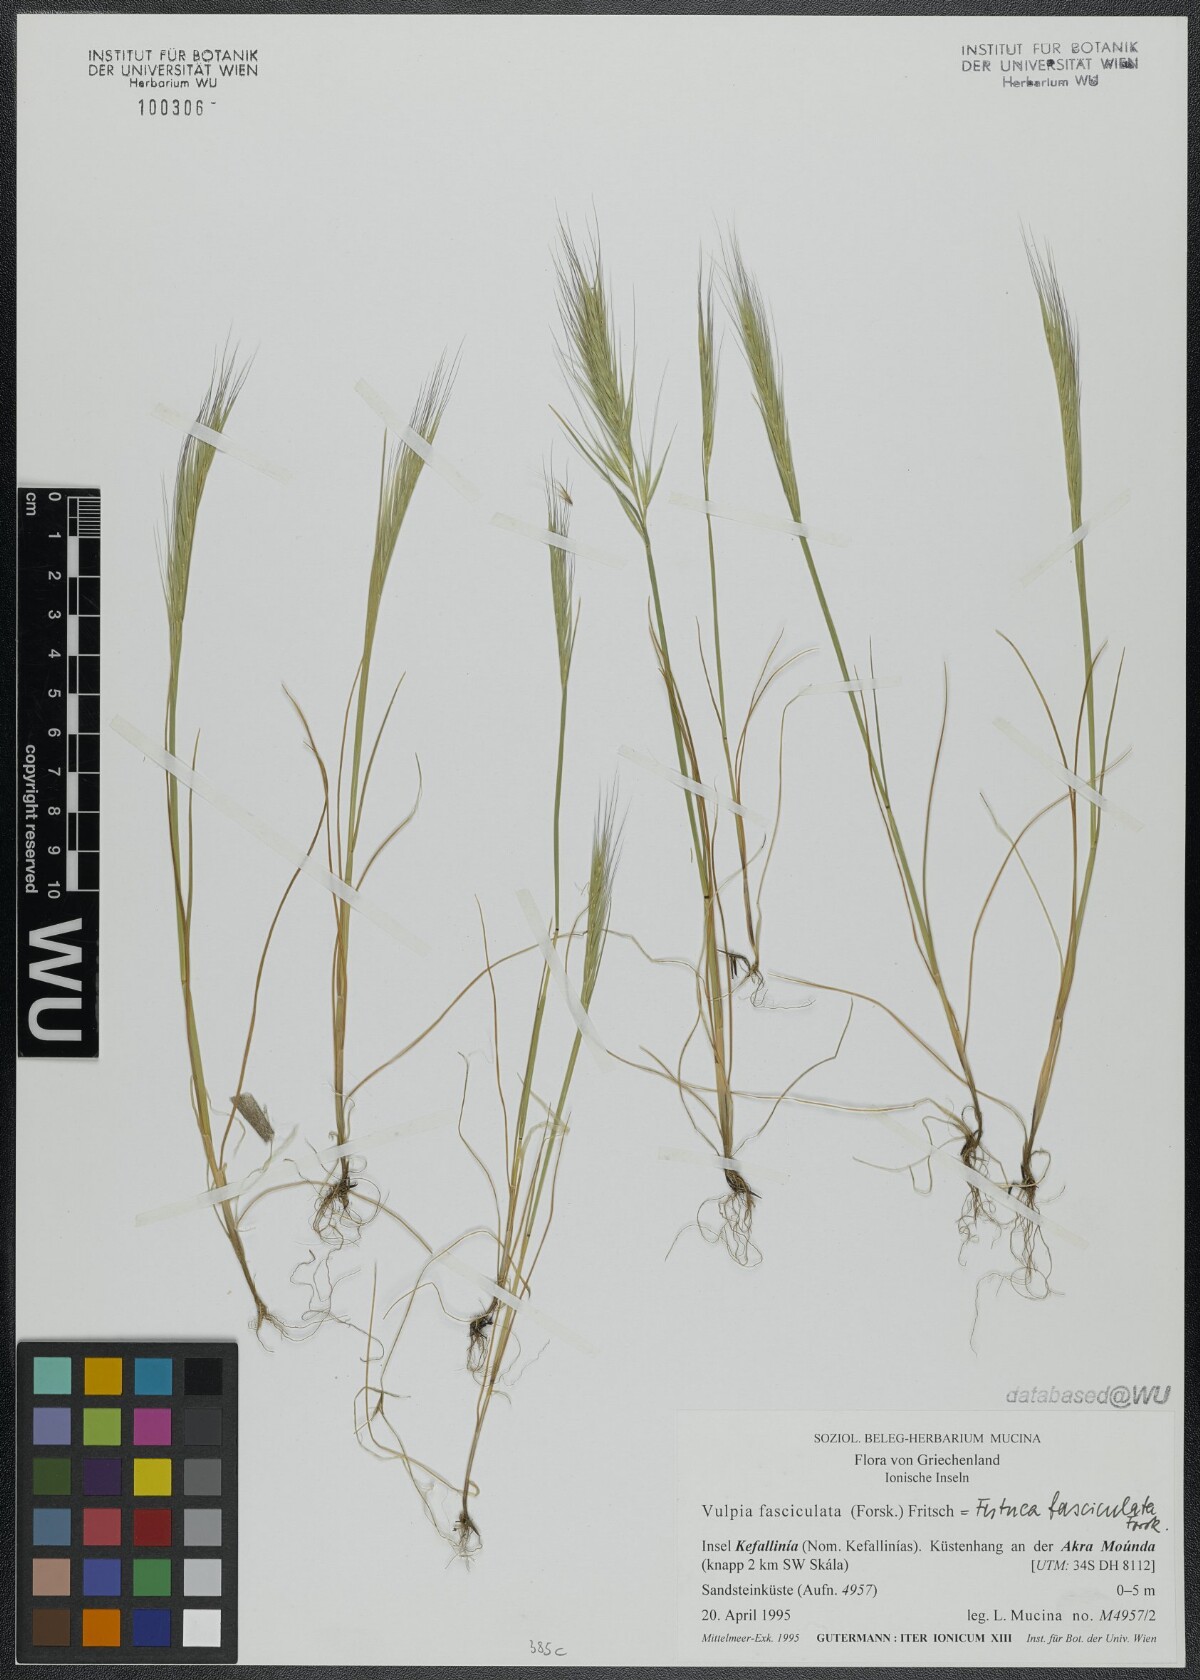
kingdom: Plantae
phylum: Tracheophyta
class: Liliopsida
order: Poales
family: Poaceae
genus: Festuca
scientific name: Festuca fasciculata
